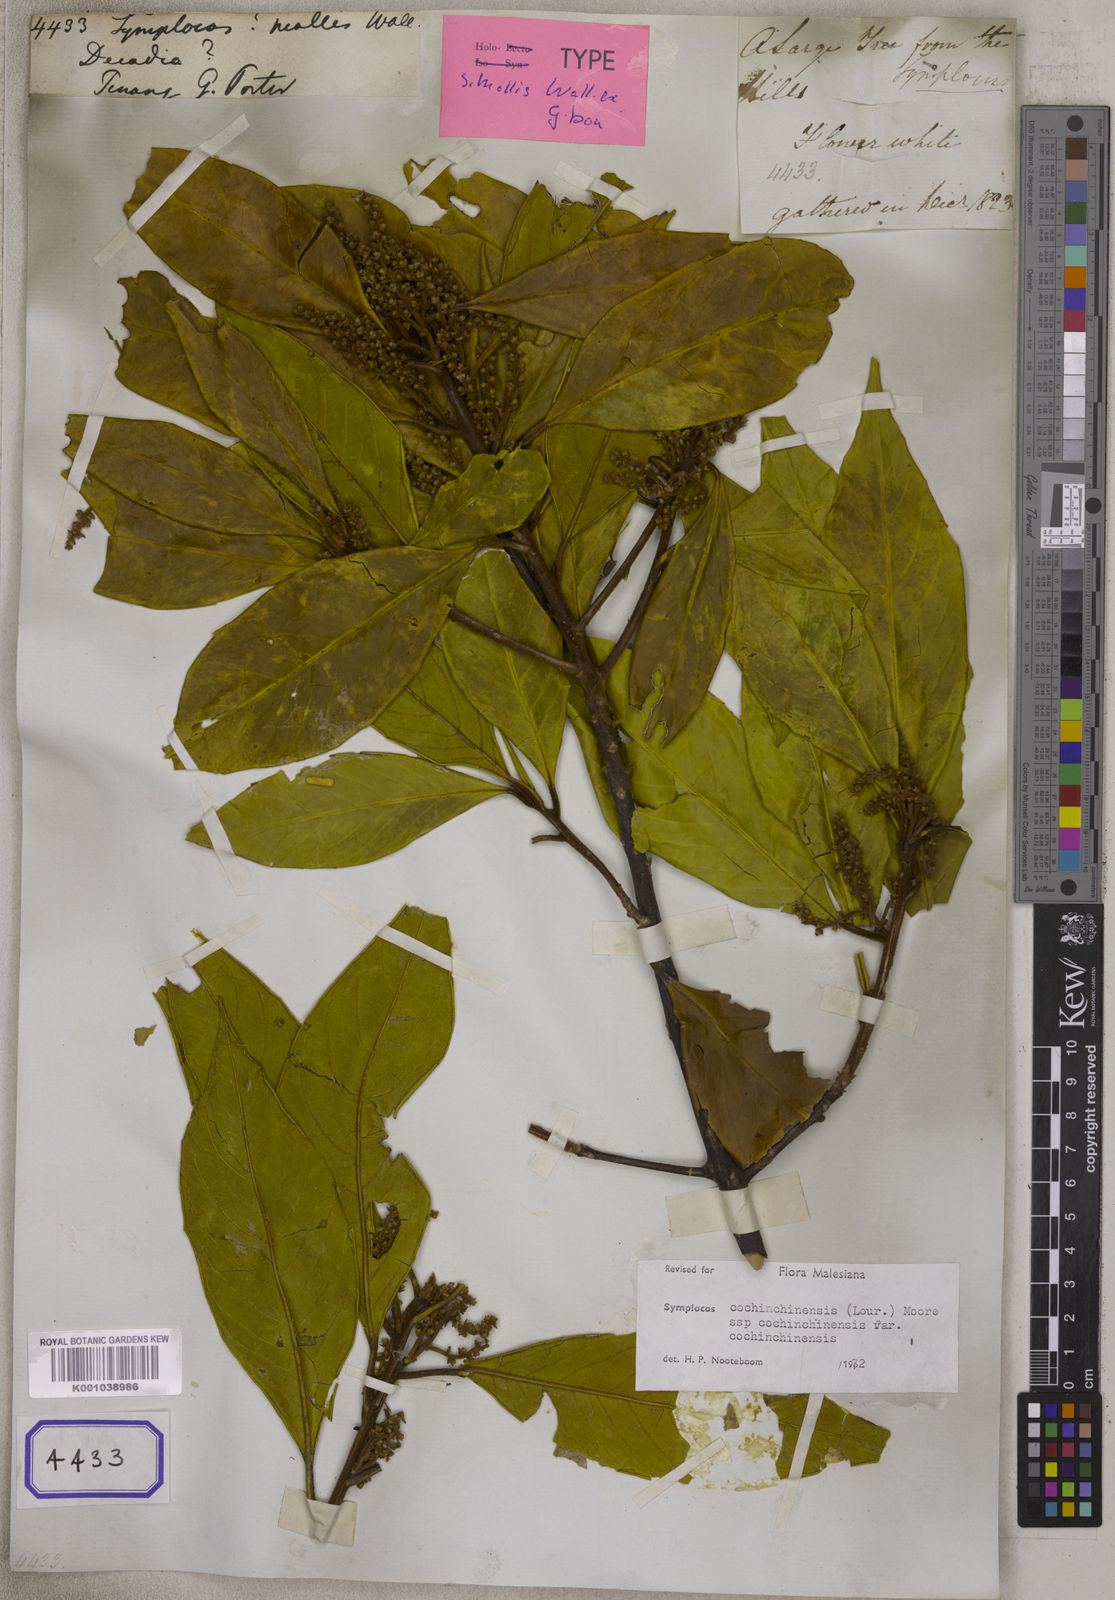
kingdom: Plantae
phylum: Tracheophyta
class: Magnoliopsida
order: Ericales
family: Symplocaceae
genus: Symplocos
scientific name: Symplocos
